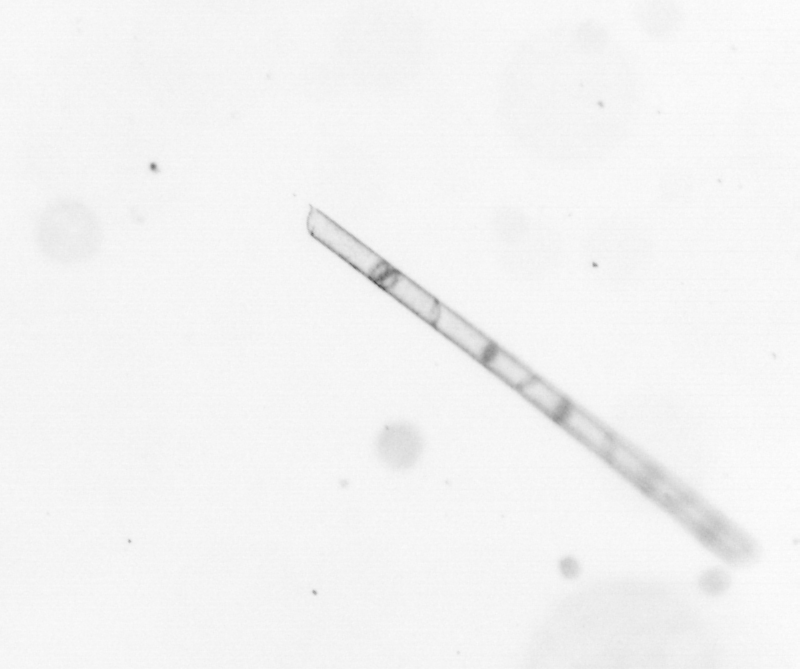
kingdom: Chromista
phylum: Ochrophyta
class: Bacillariophyceae
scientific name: Bacillariophyceae
